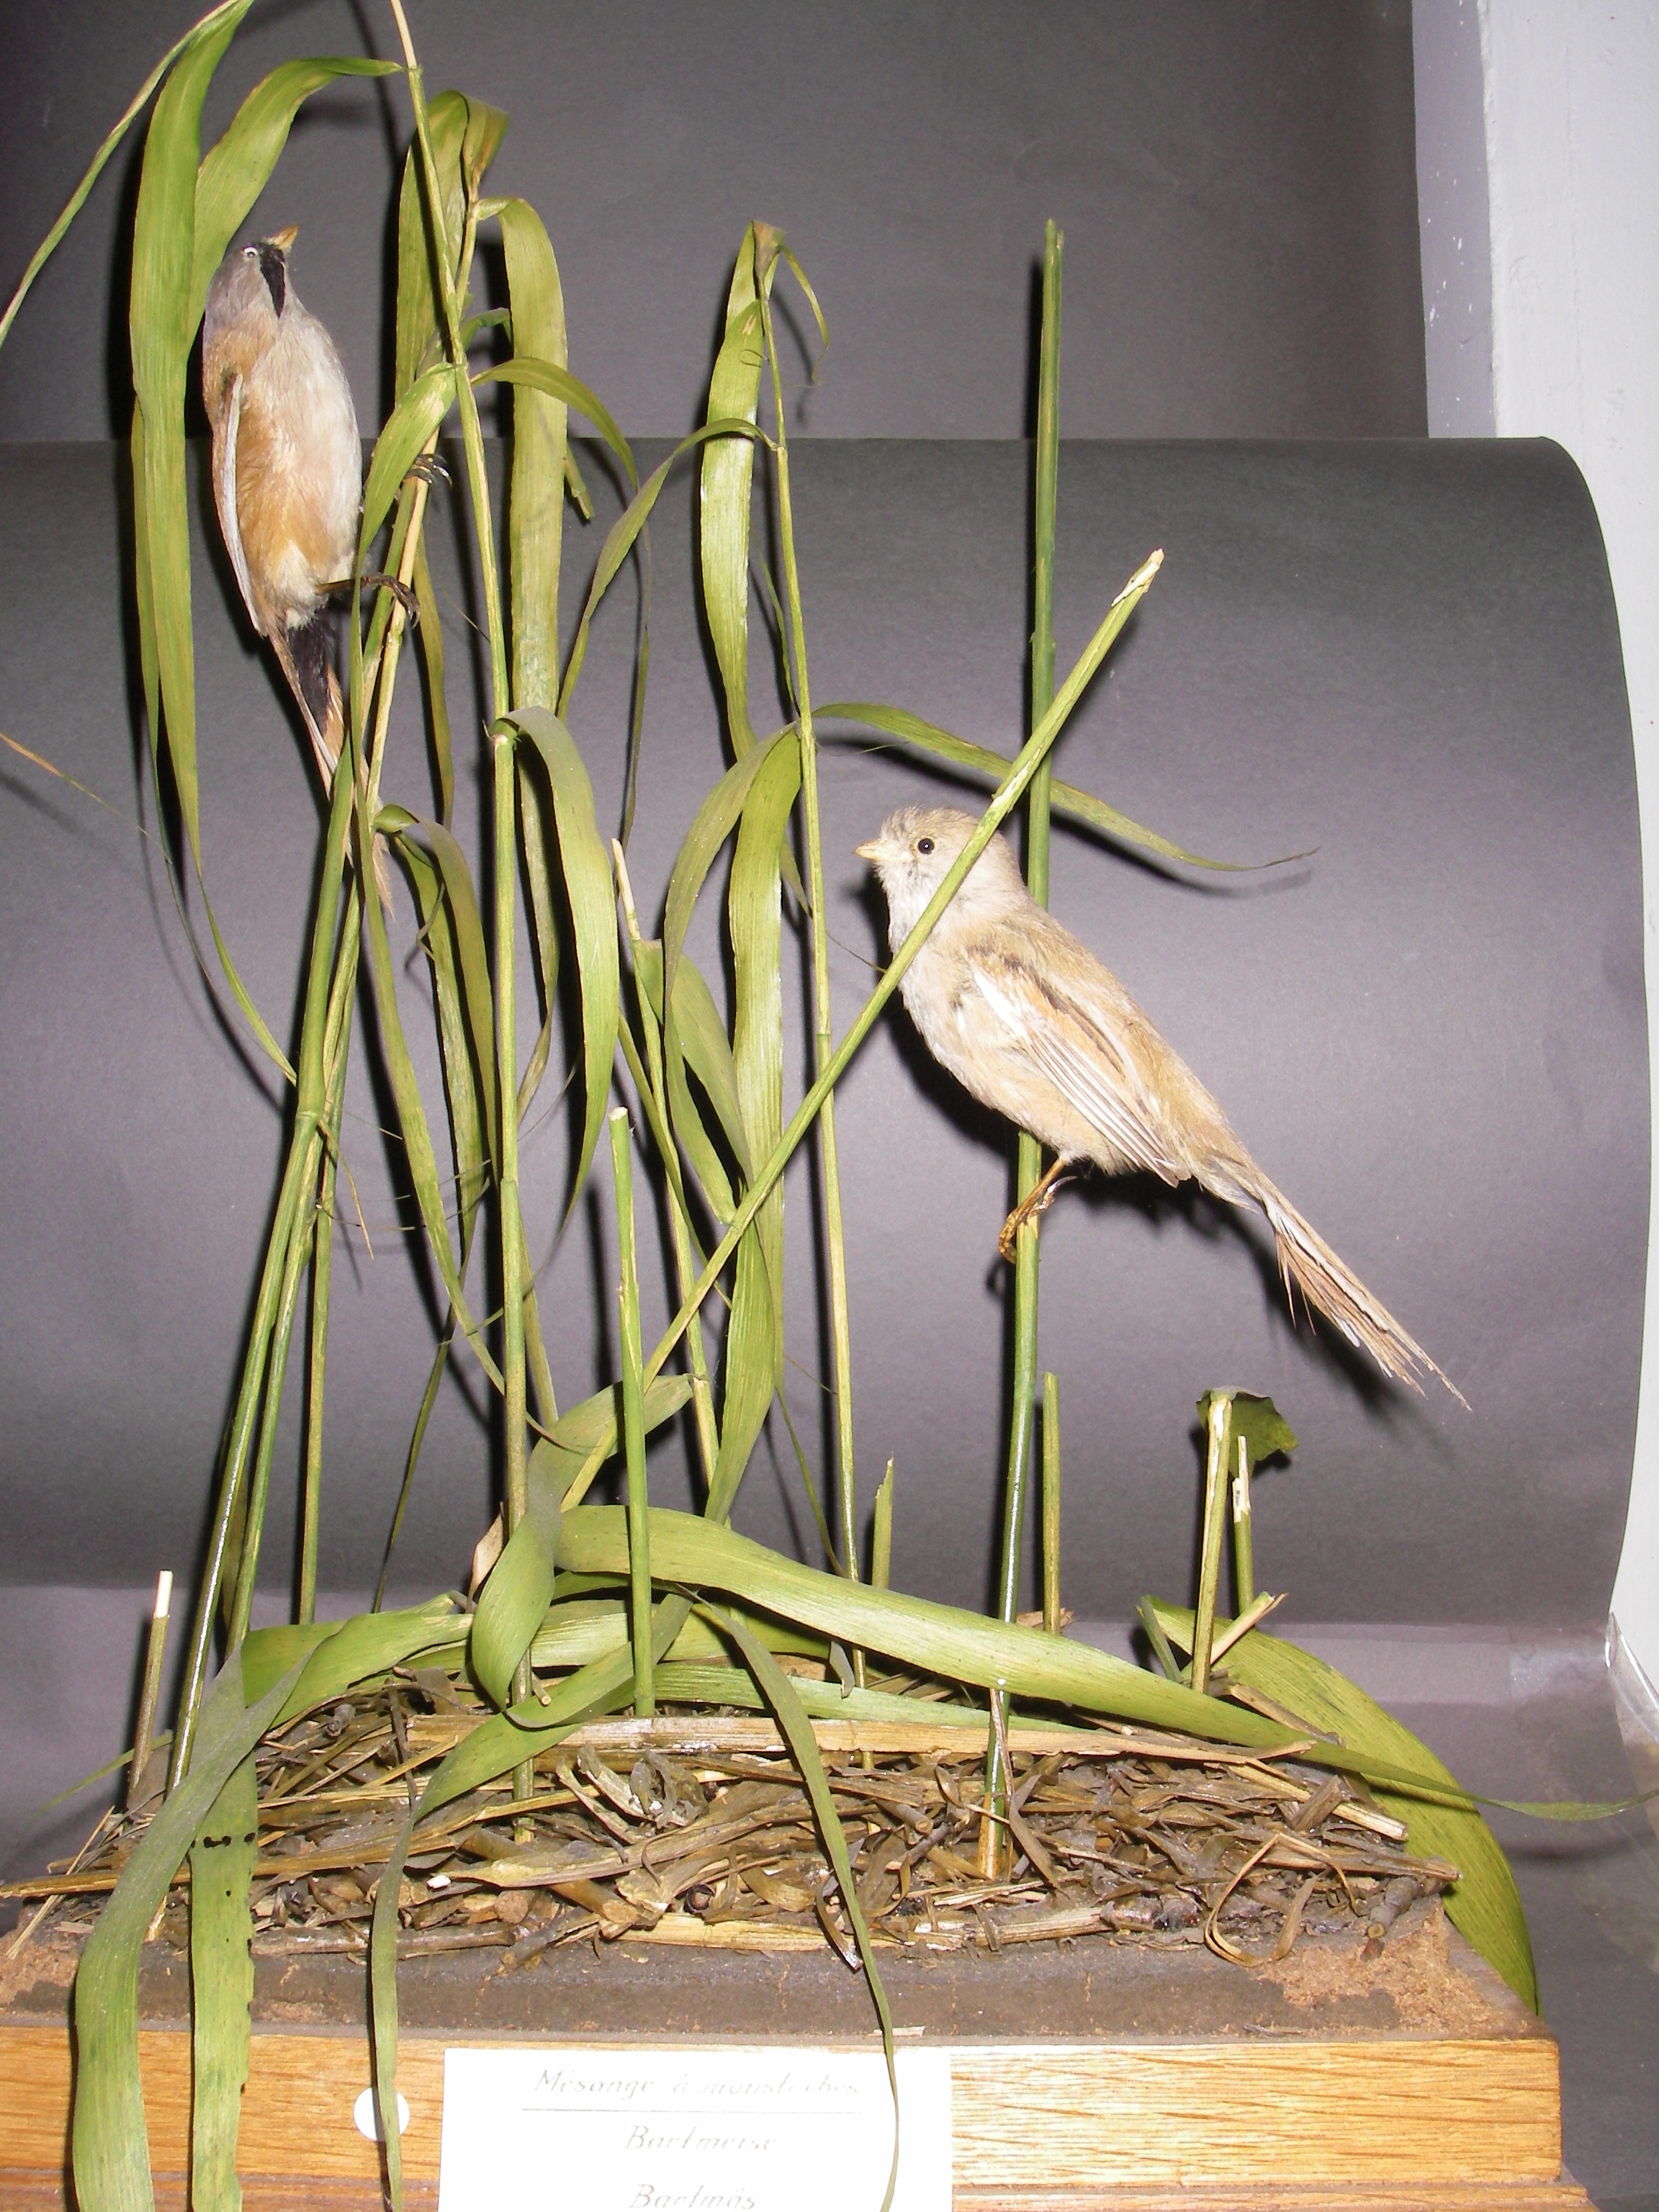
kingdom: Animalia
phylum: Chordata
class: Aves
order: Passeriformes
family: Panuridae
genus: Panurus
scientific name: Panurus biarmicus
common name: Bearded reedling
